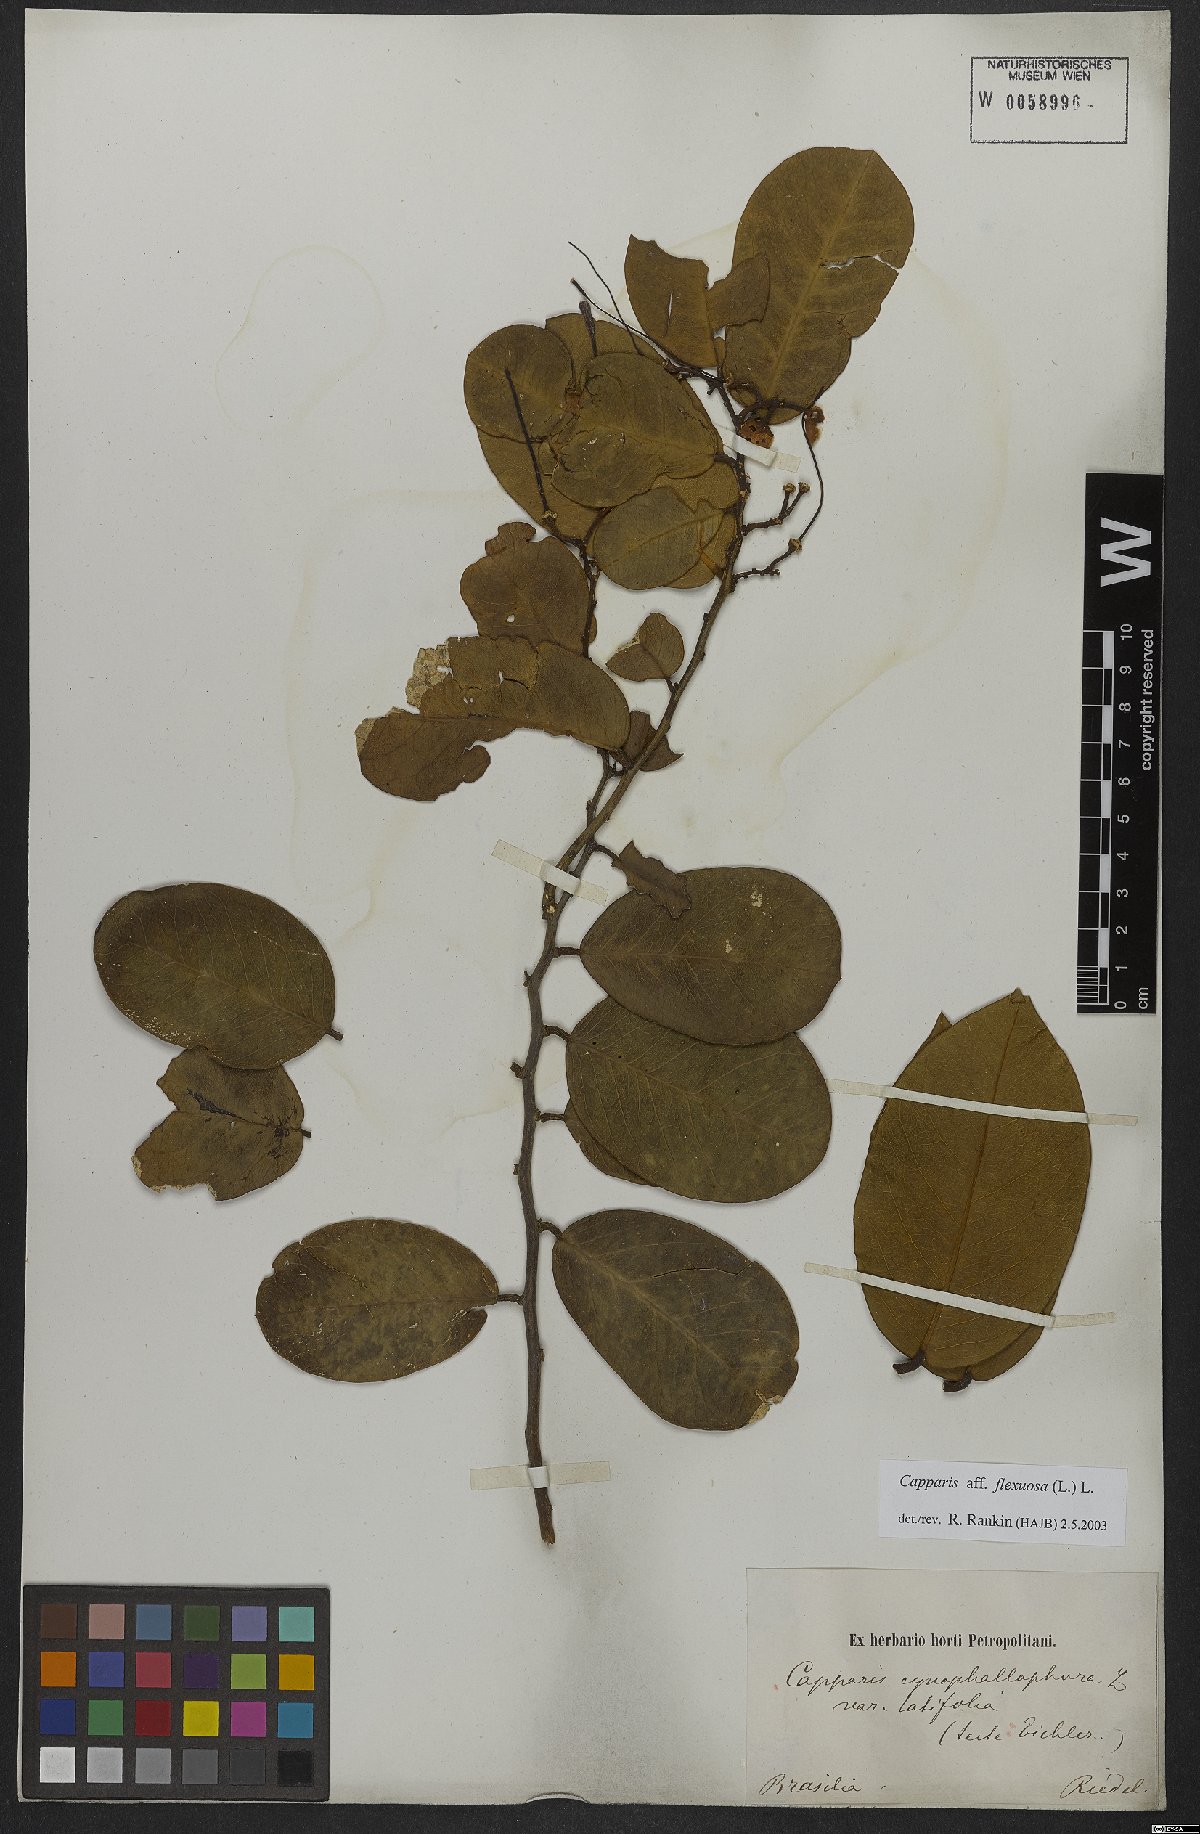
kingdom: Plantae
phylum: Tracheophyta
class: Magnoliopsida
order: Brassicales
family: Capparaceae
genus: Cynophalla
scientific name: Cynophalla flexuosa
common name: Capertree
